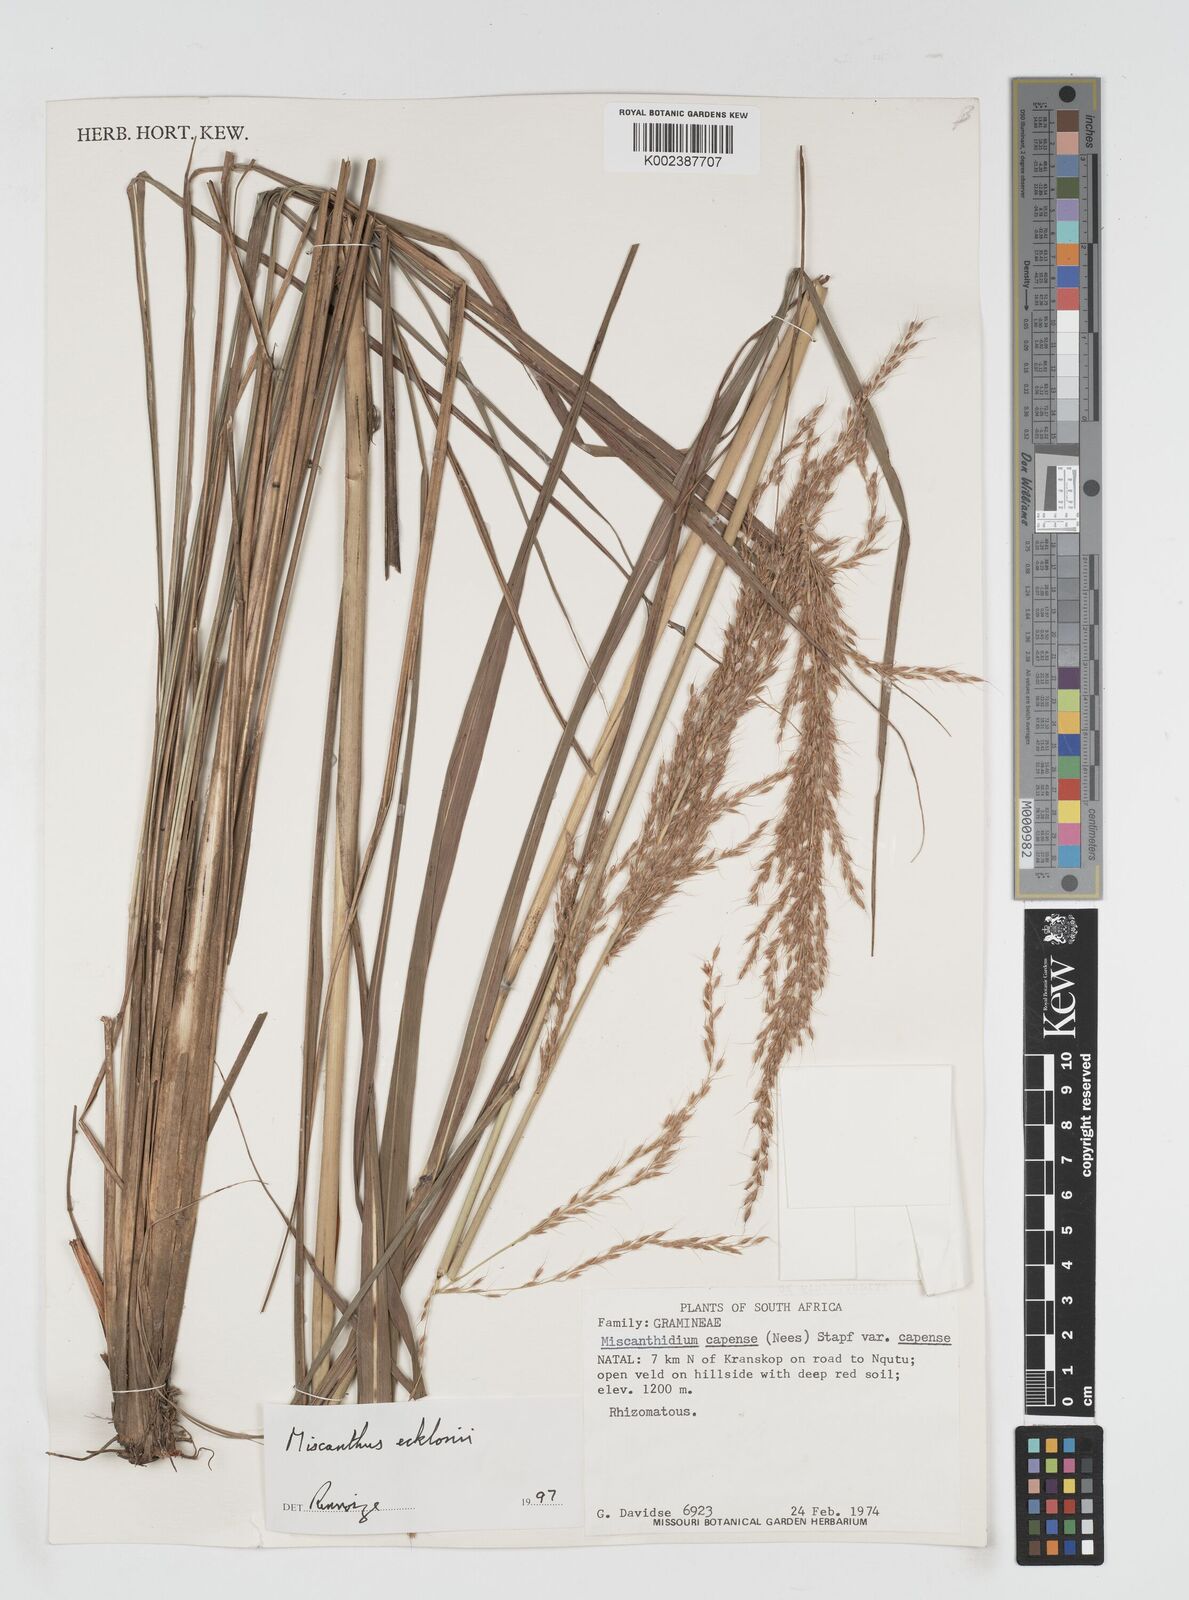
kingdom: Plantae
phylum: Tracheophyta
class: Liliopsida
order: Poales
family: Poaceae
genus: Miscanthus
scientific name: Miscanthus ecklonii
